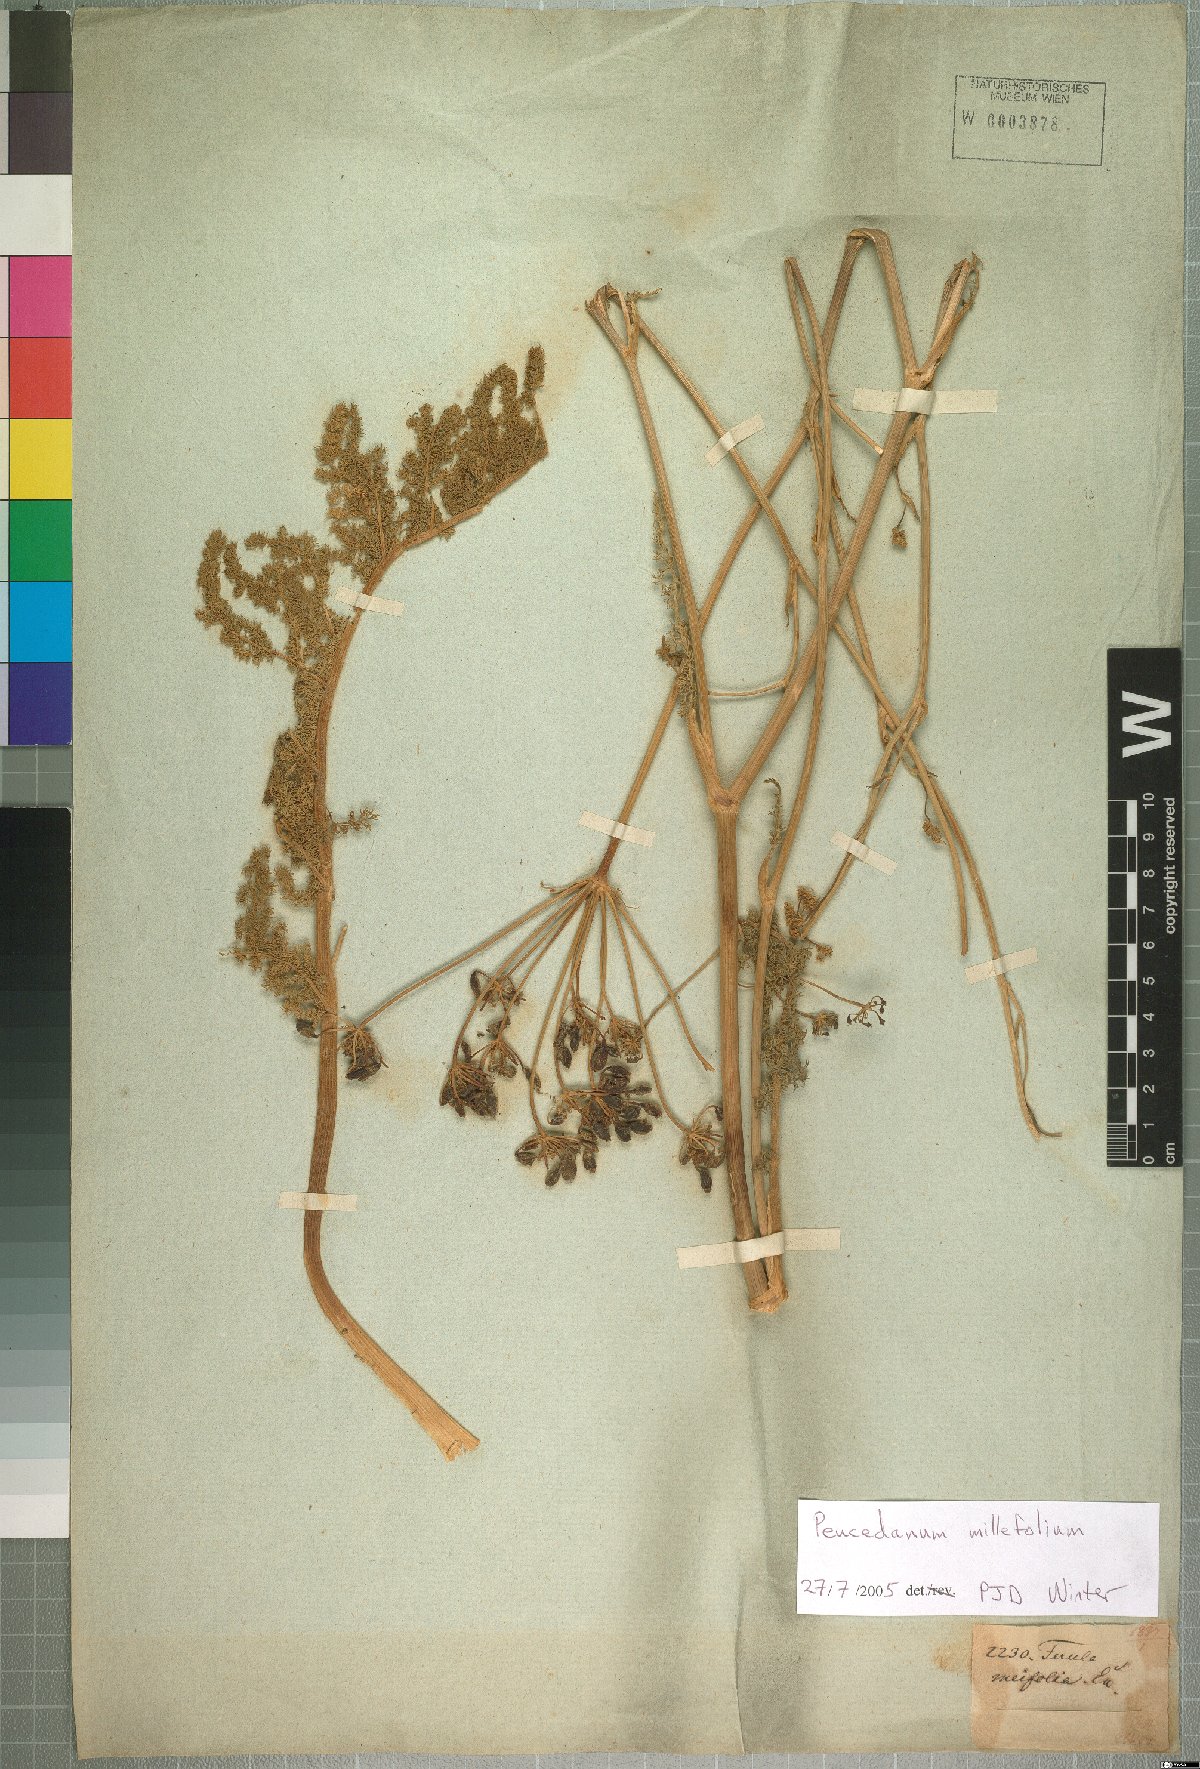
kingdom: Plantae
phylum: Tracheophyta
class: Magnoliopsida
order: Apiales
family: Apiaceae
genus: Cynorhiza
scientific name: Cynorhiza meifolia
